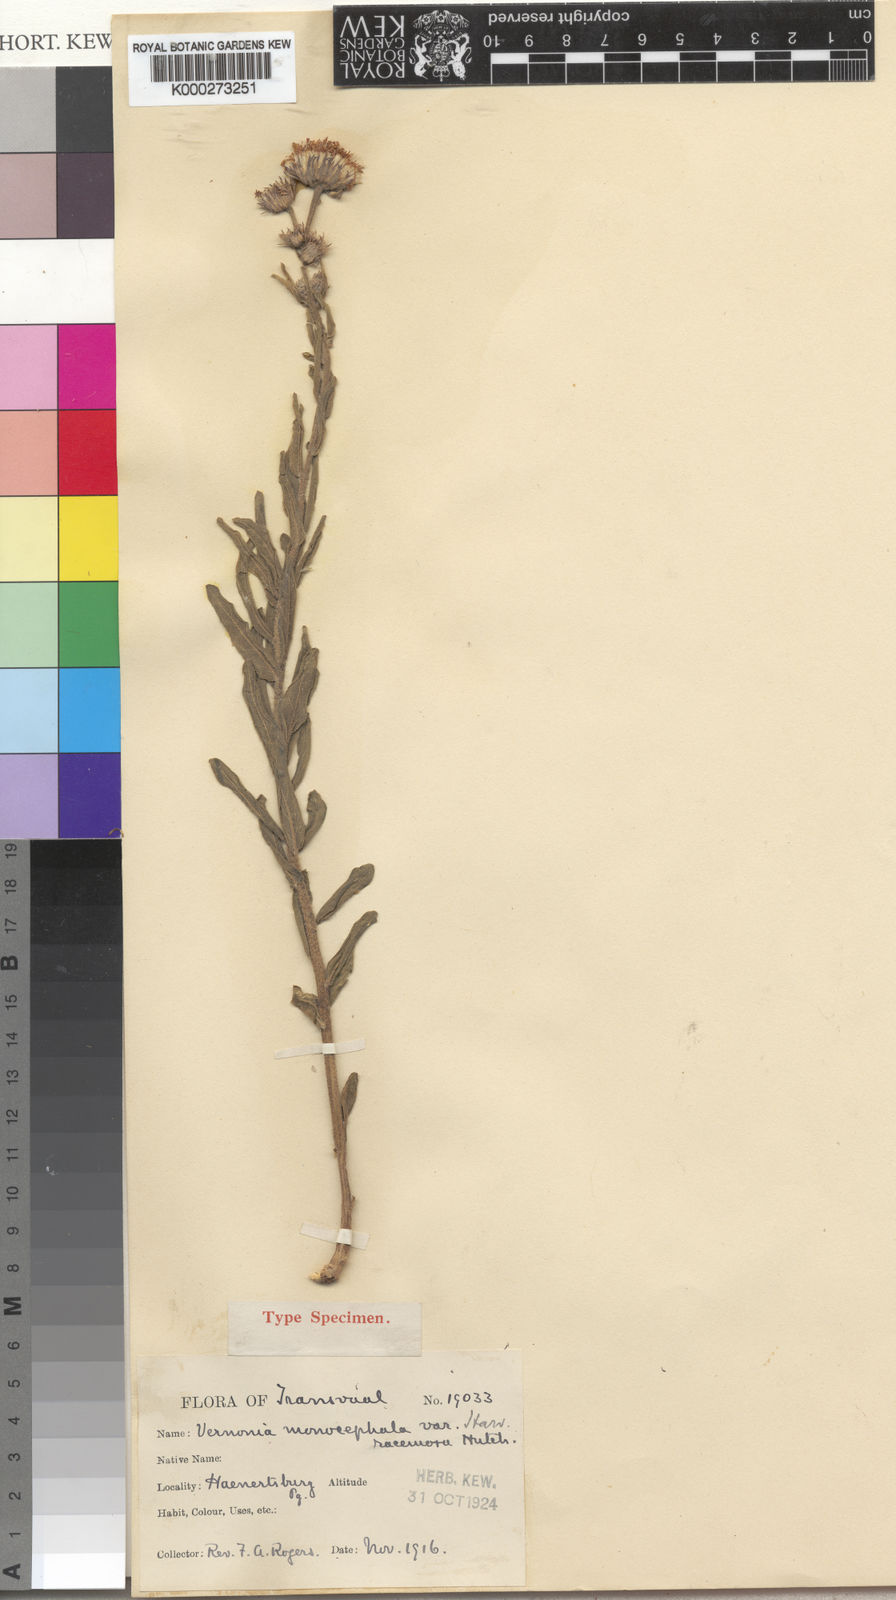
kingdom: Plantae
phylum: Tracheophyta
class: Magnoliopsida
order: Asterales
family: Asteraceae
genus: Pseudopegolettia
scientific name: Pseudopegolettia tenella
